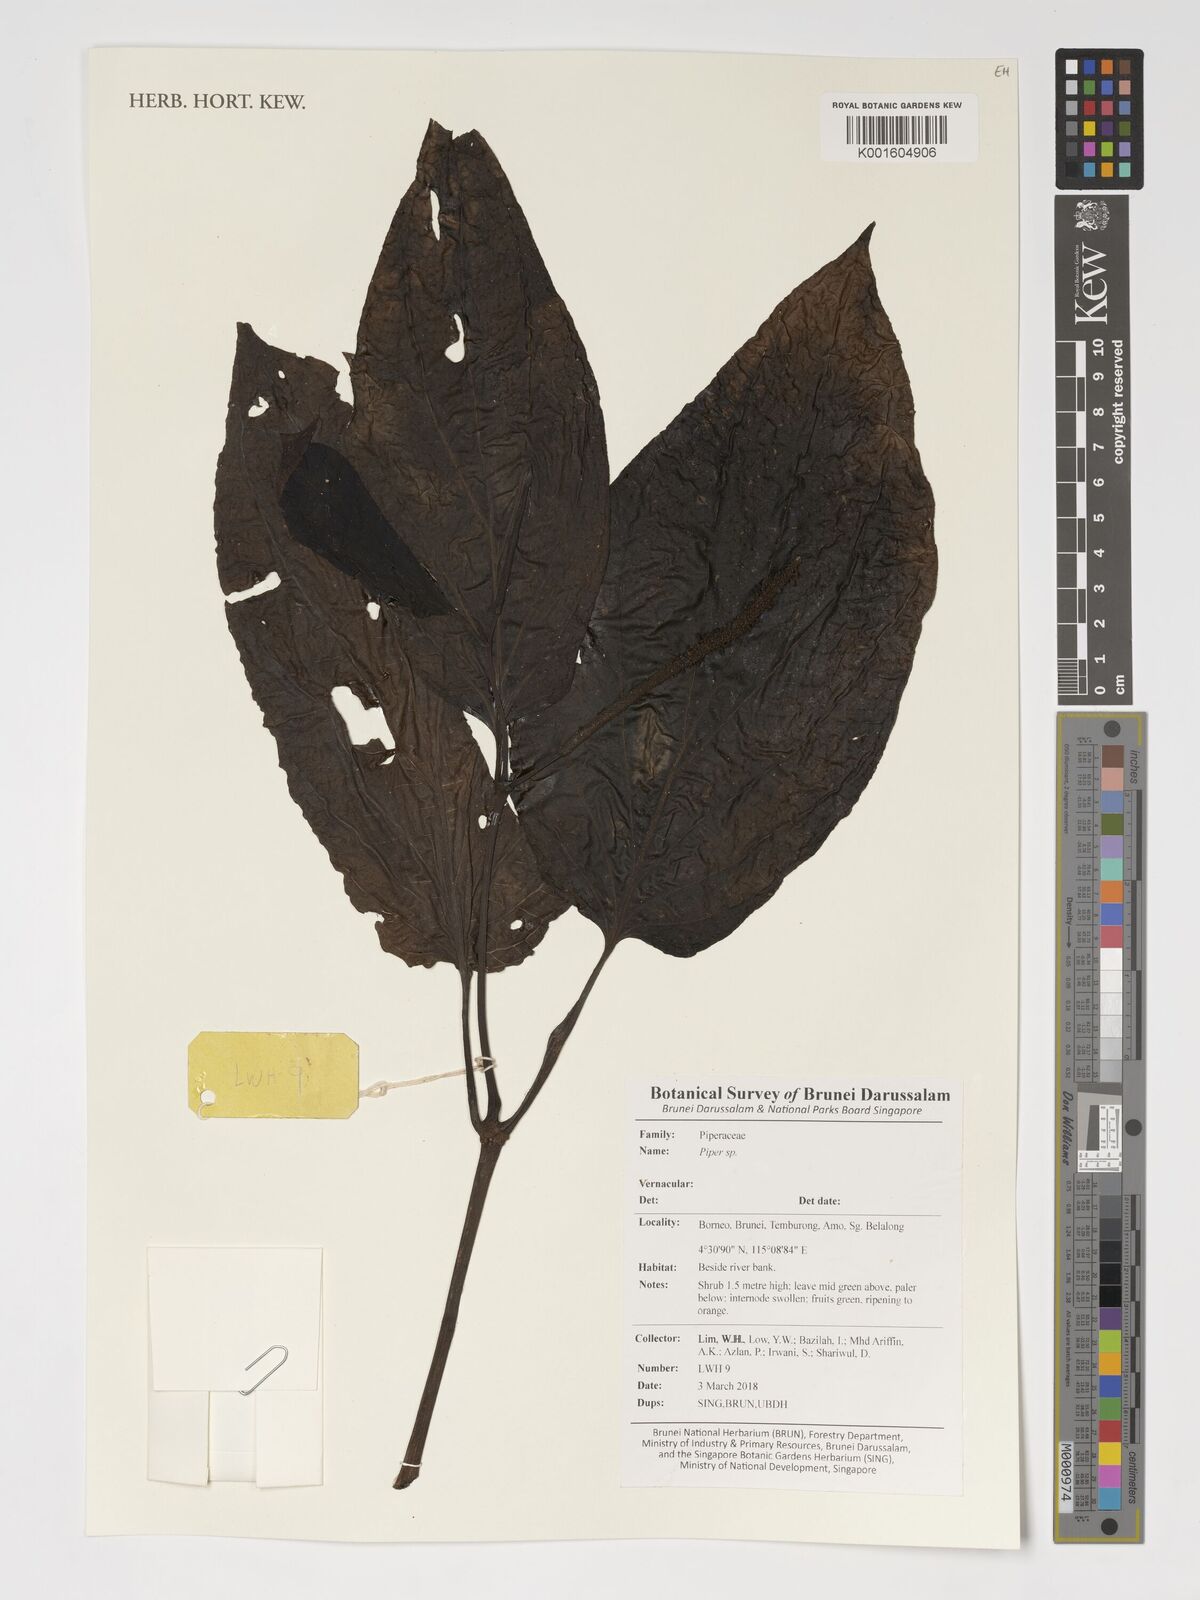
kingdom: Plantae
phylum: Tracheophyta
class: Magnoliopsida
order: Piperales
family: Piperaceae
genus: Piper
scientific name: Piper
